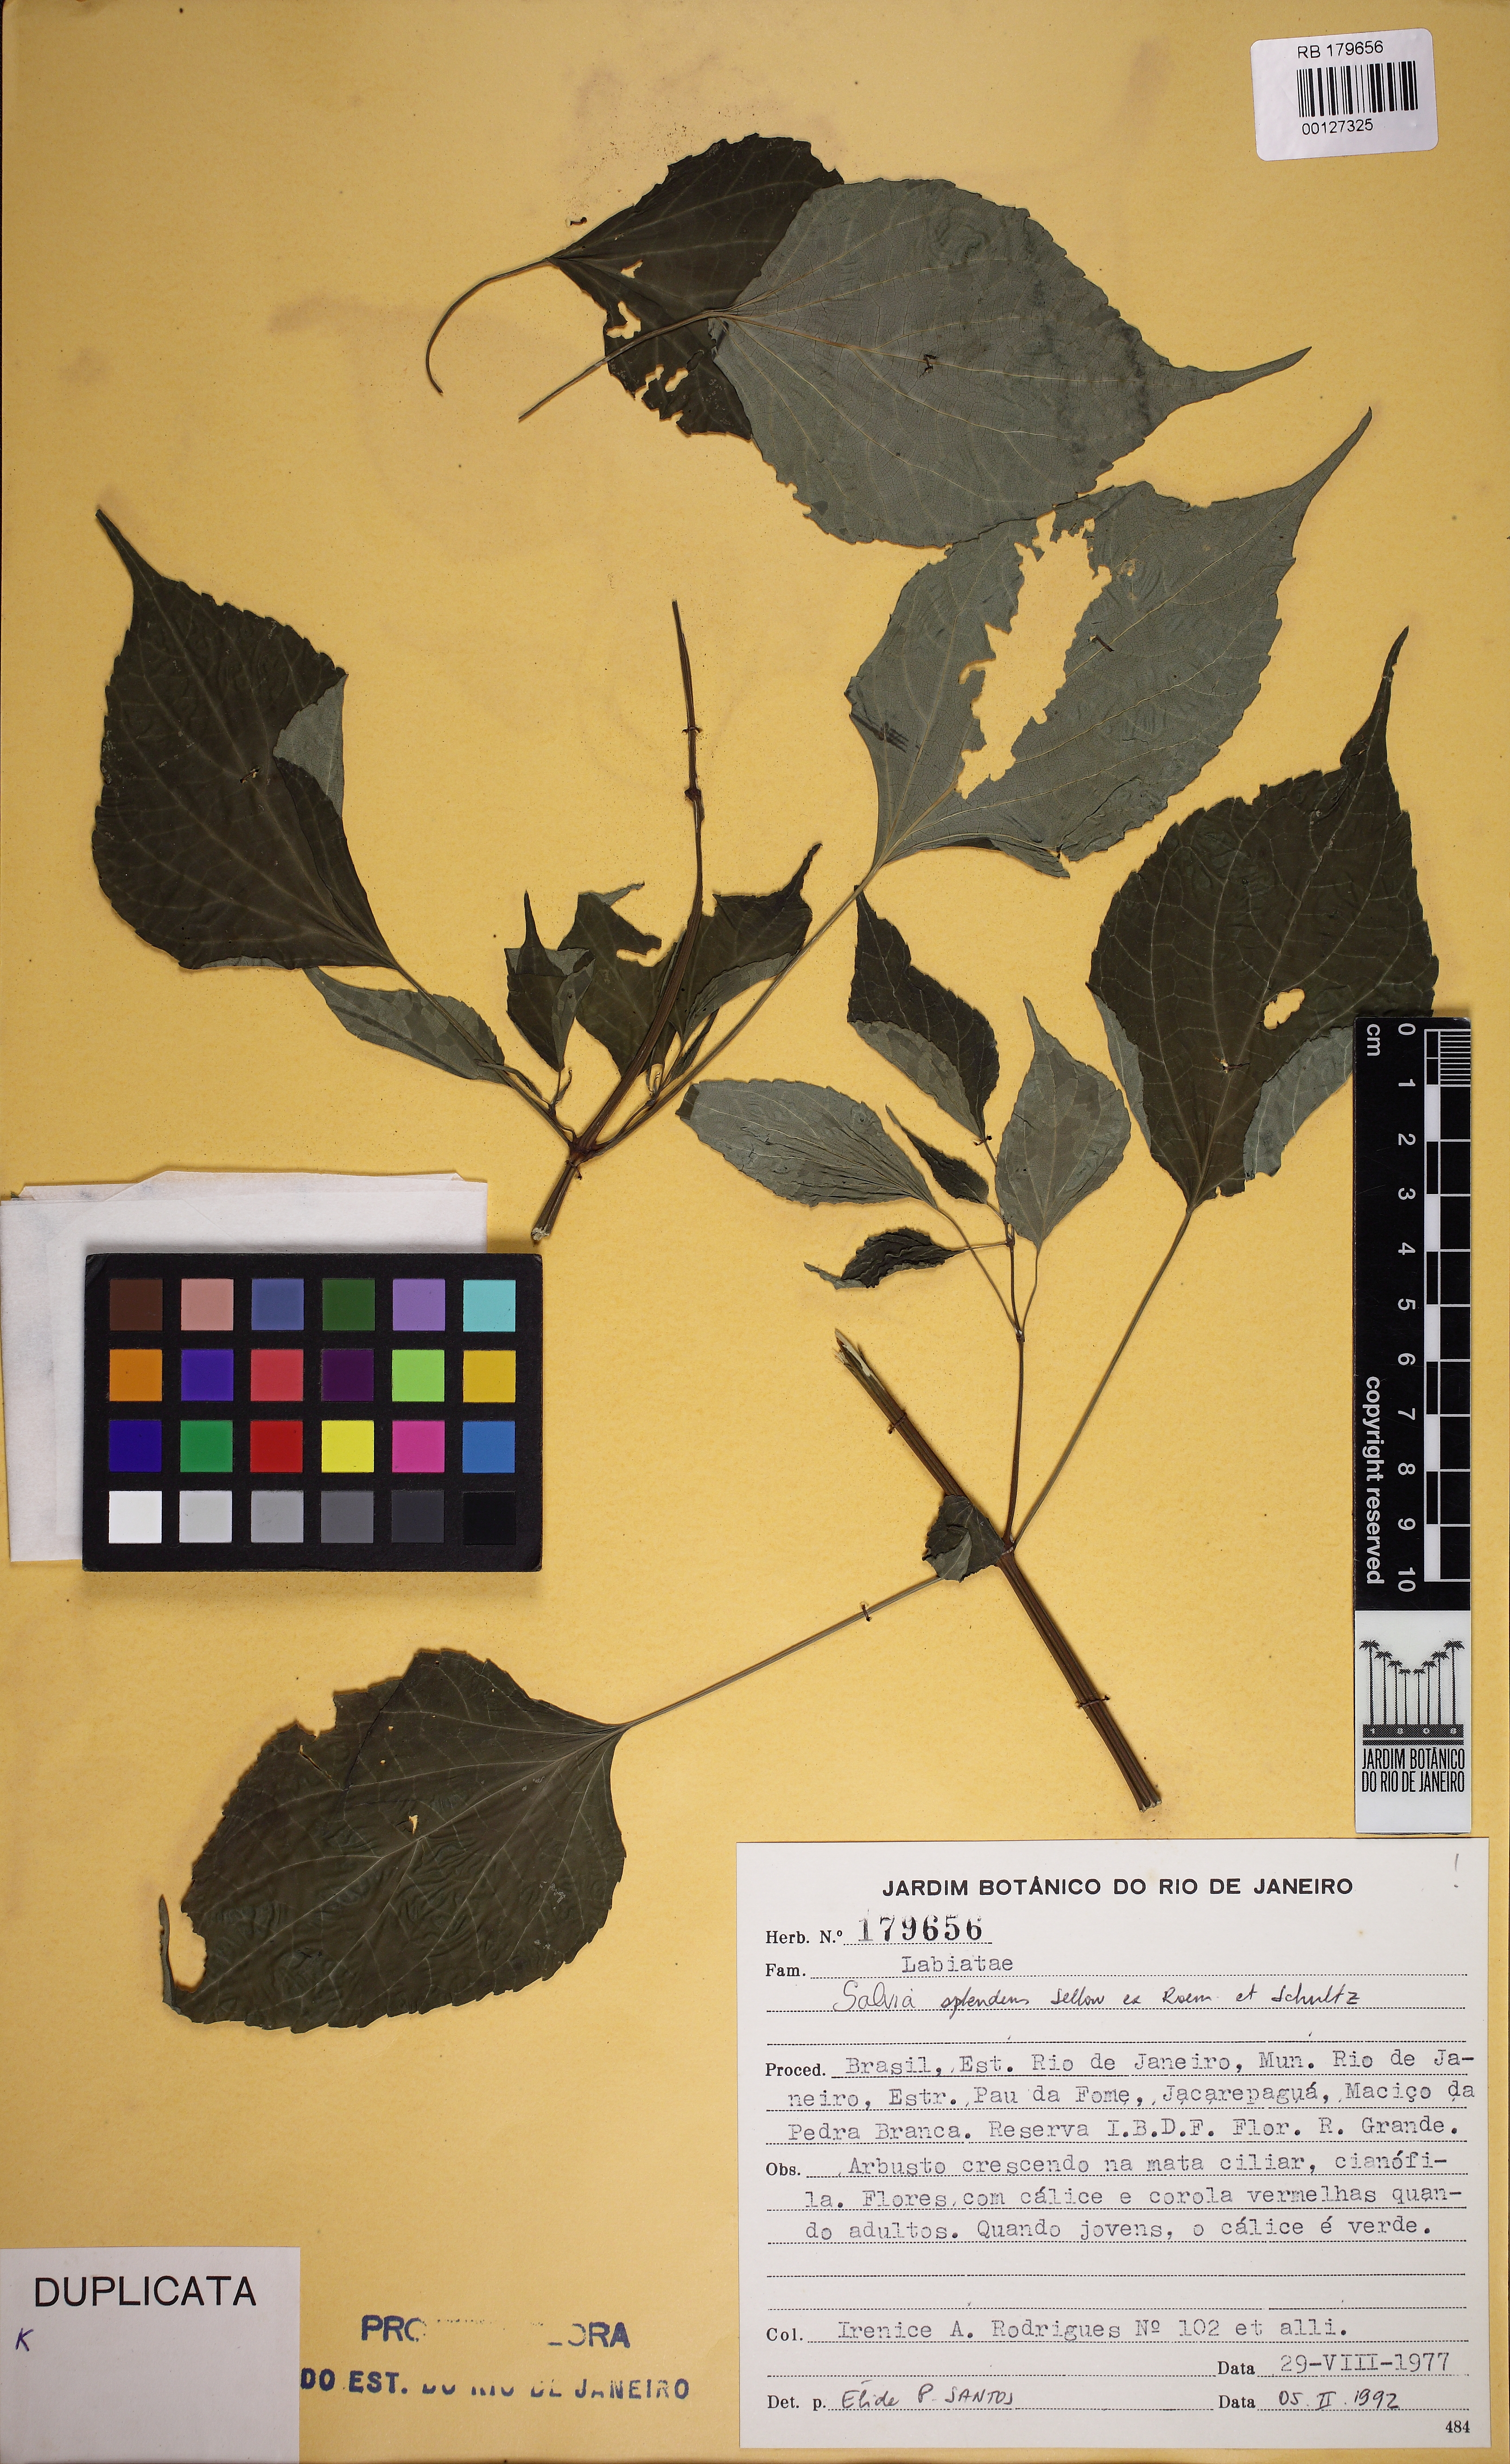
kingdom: Plantae
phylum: Tracheophyta
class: Magnoliopsida
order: Lamiales
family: Lamiaceae
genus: Salvia
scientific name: Salvia splendens
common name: Scarlet sage
